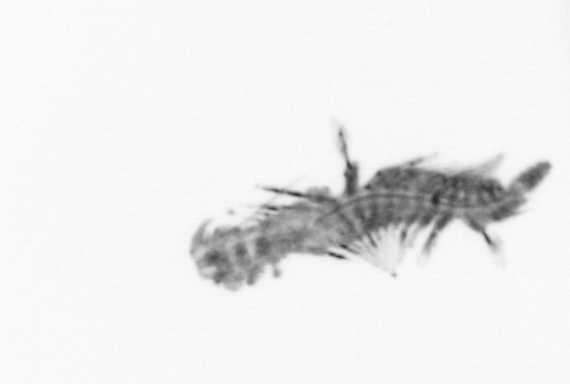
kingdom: Animalia
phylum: Annelida
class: Polychaeta
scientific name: Polychaeta
